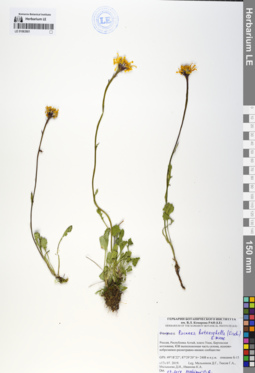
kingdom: Plantae
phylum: Tracheophyta
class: Magnoliopsida
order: Asterales
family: Asteraceae
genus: Packera
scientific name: Packera heterophylla
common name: Arctic butterweed
